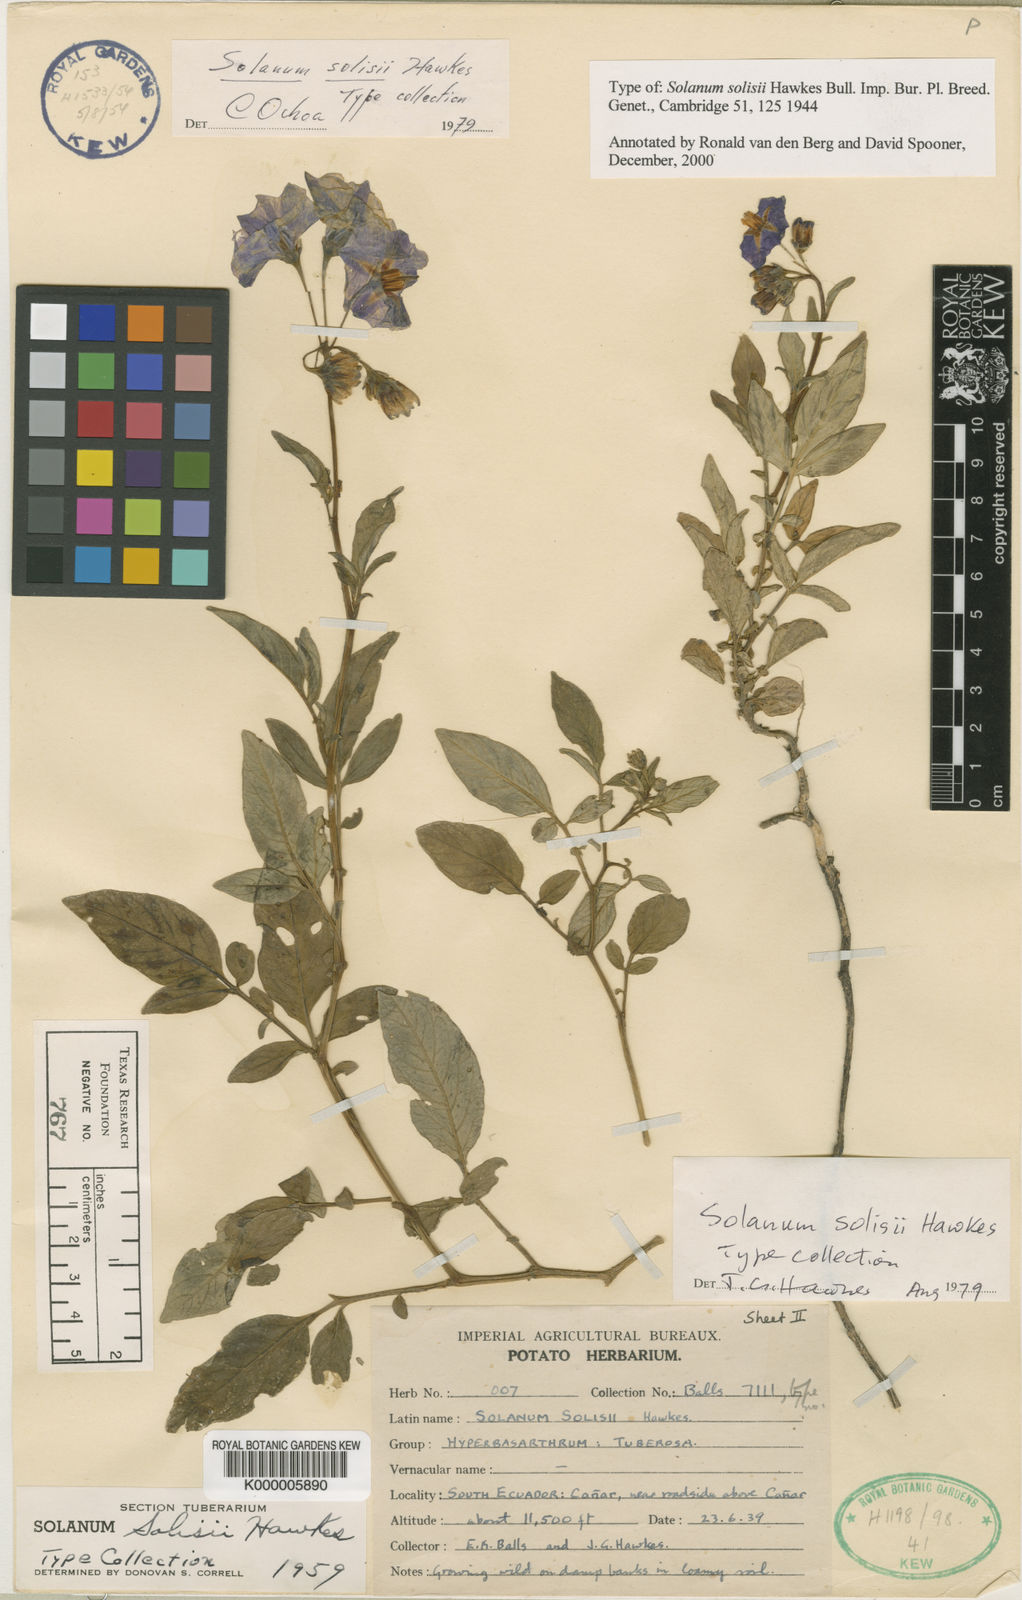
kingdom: Plantae
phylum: Tracheophyta
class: Magnoliopsida
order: Solanales
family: Solanaceae
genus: Solanum
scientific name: Solanum andreanum
